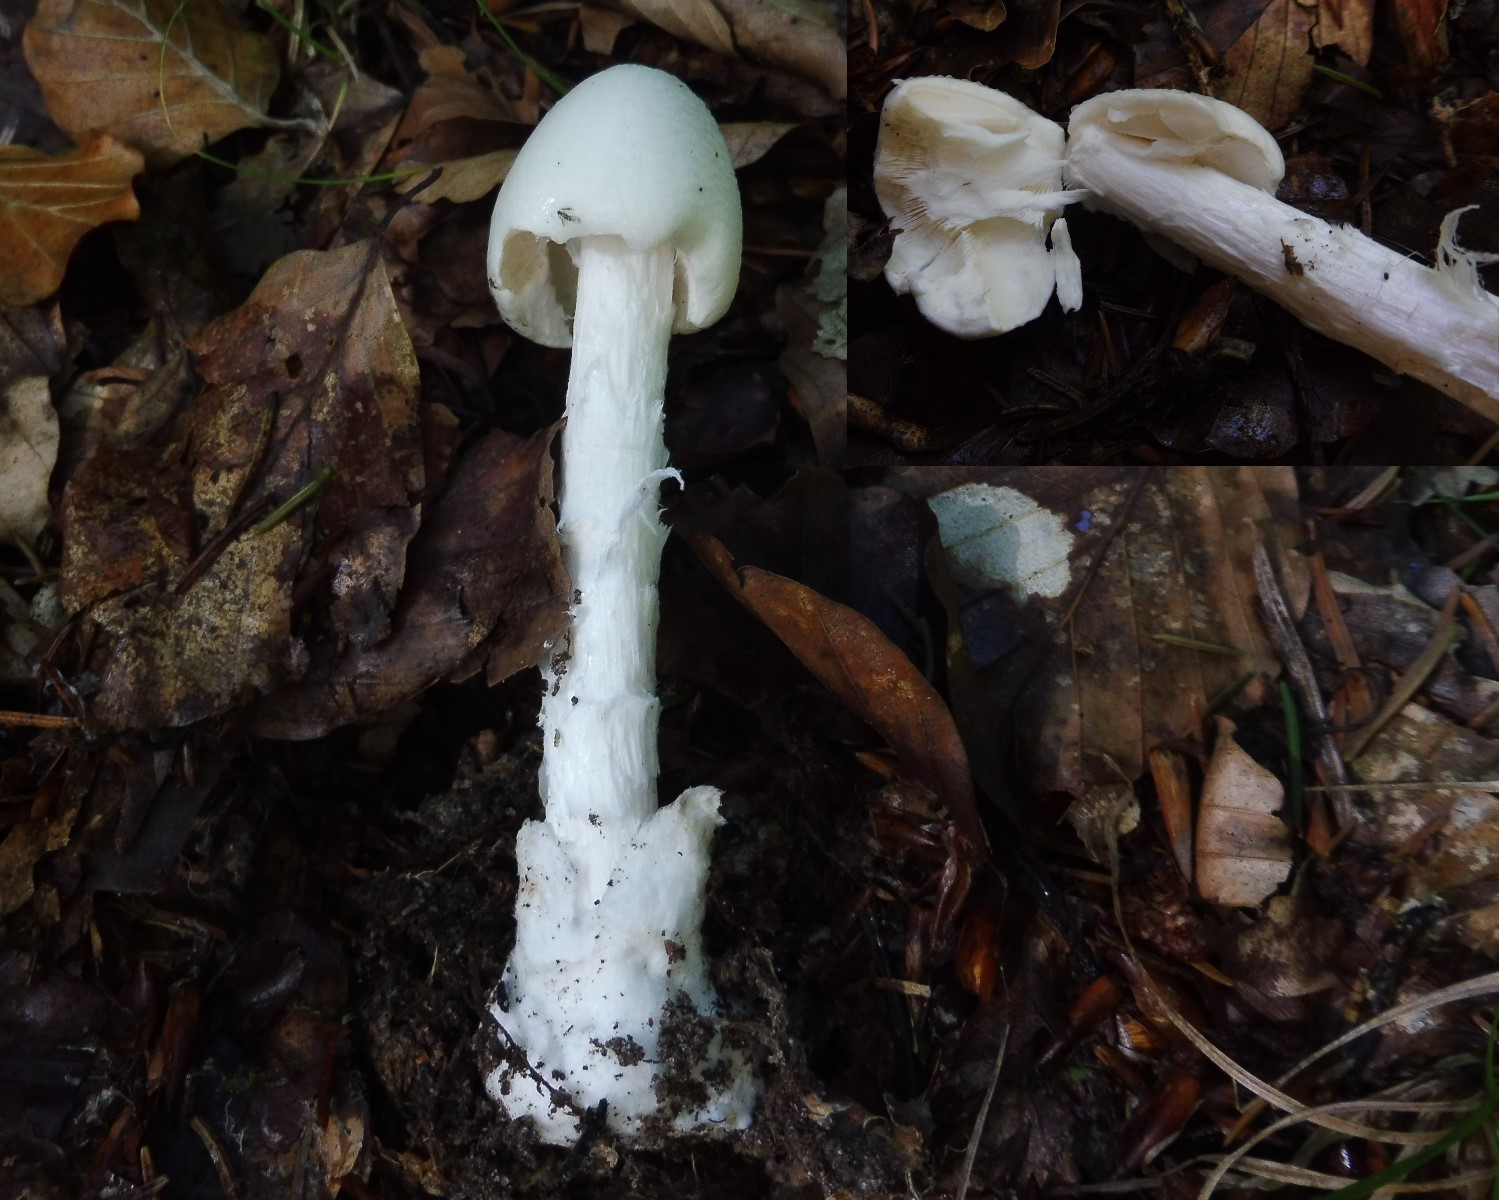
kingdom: Fungi
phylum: Basidiomycota
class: Agaricomycetes
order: Agaricales
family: Amanitaceae
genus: Amanita
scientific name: Amanita virosa
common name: snehvid fluesvamp
